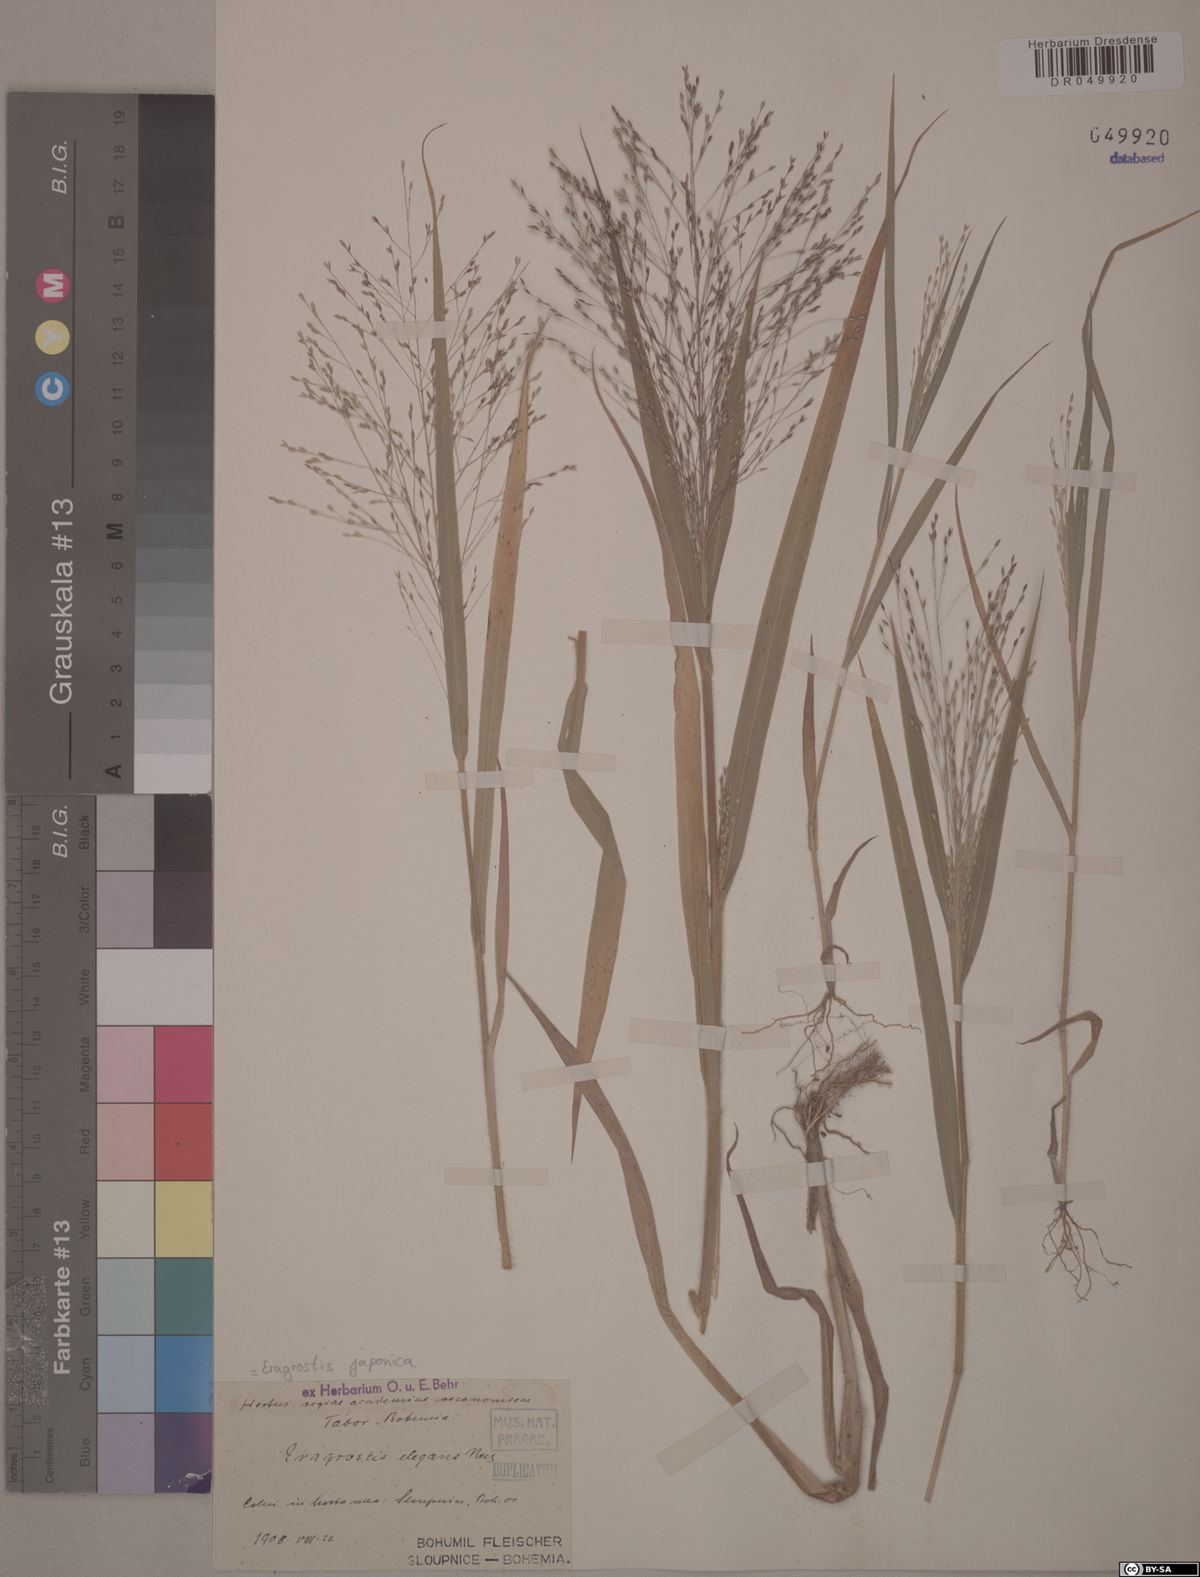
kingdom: Plantae
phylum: Tracheophyta
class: Liliopsida
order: Poales
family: Poaceae
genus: Eragrostis
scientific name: Eragrostis japonica
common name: Pond lovegrass
